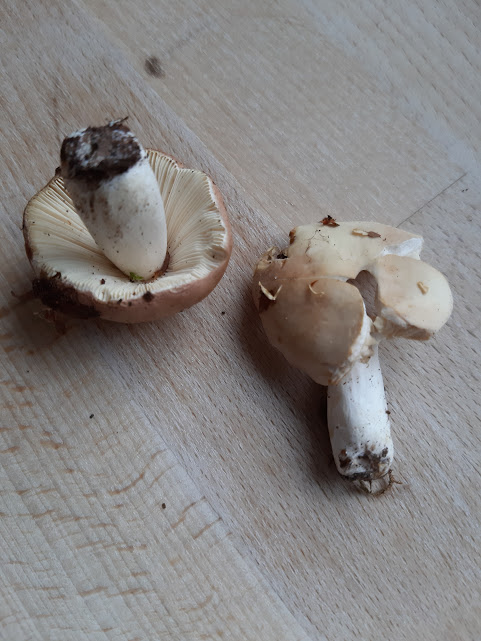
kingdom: Fungi
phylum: Basidiomycota
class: Agaricomycetes
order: Russulales
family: Russulaceae
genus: Russula
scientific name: Russula vesca
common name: spiselig skørhat
